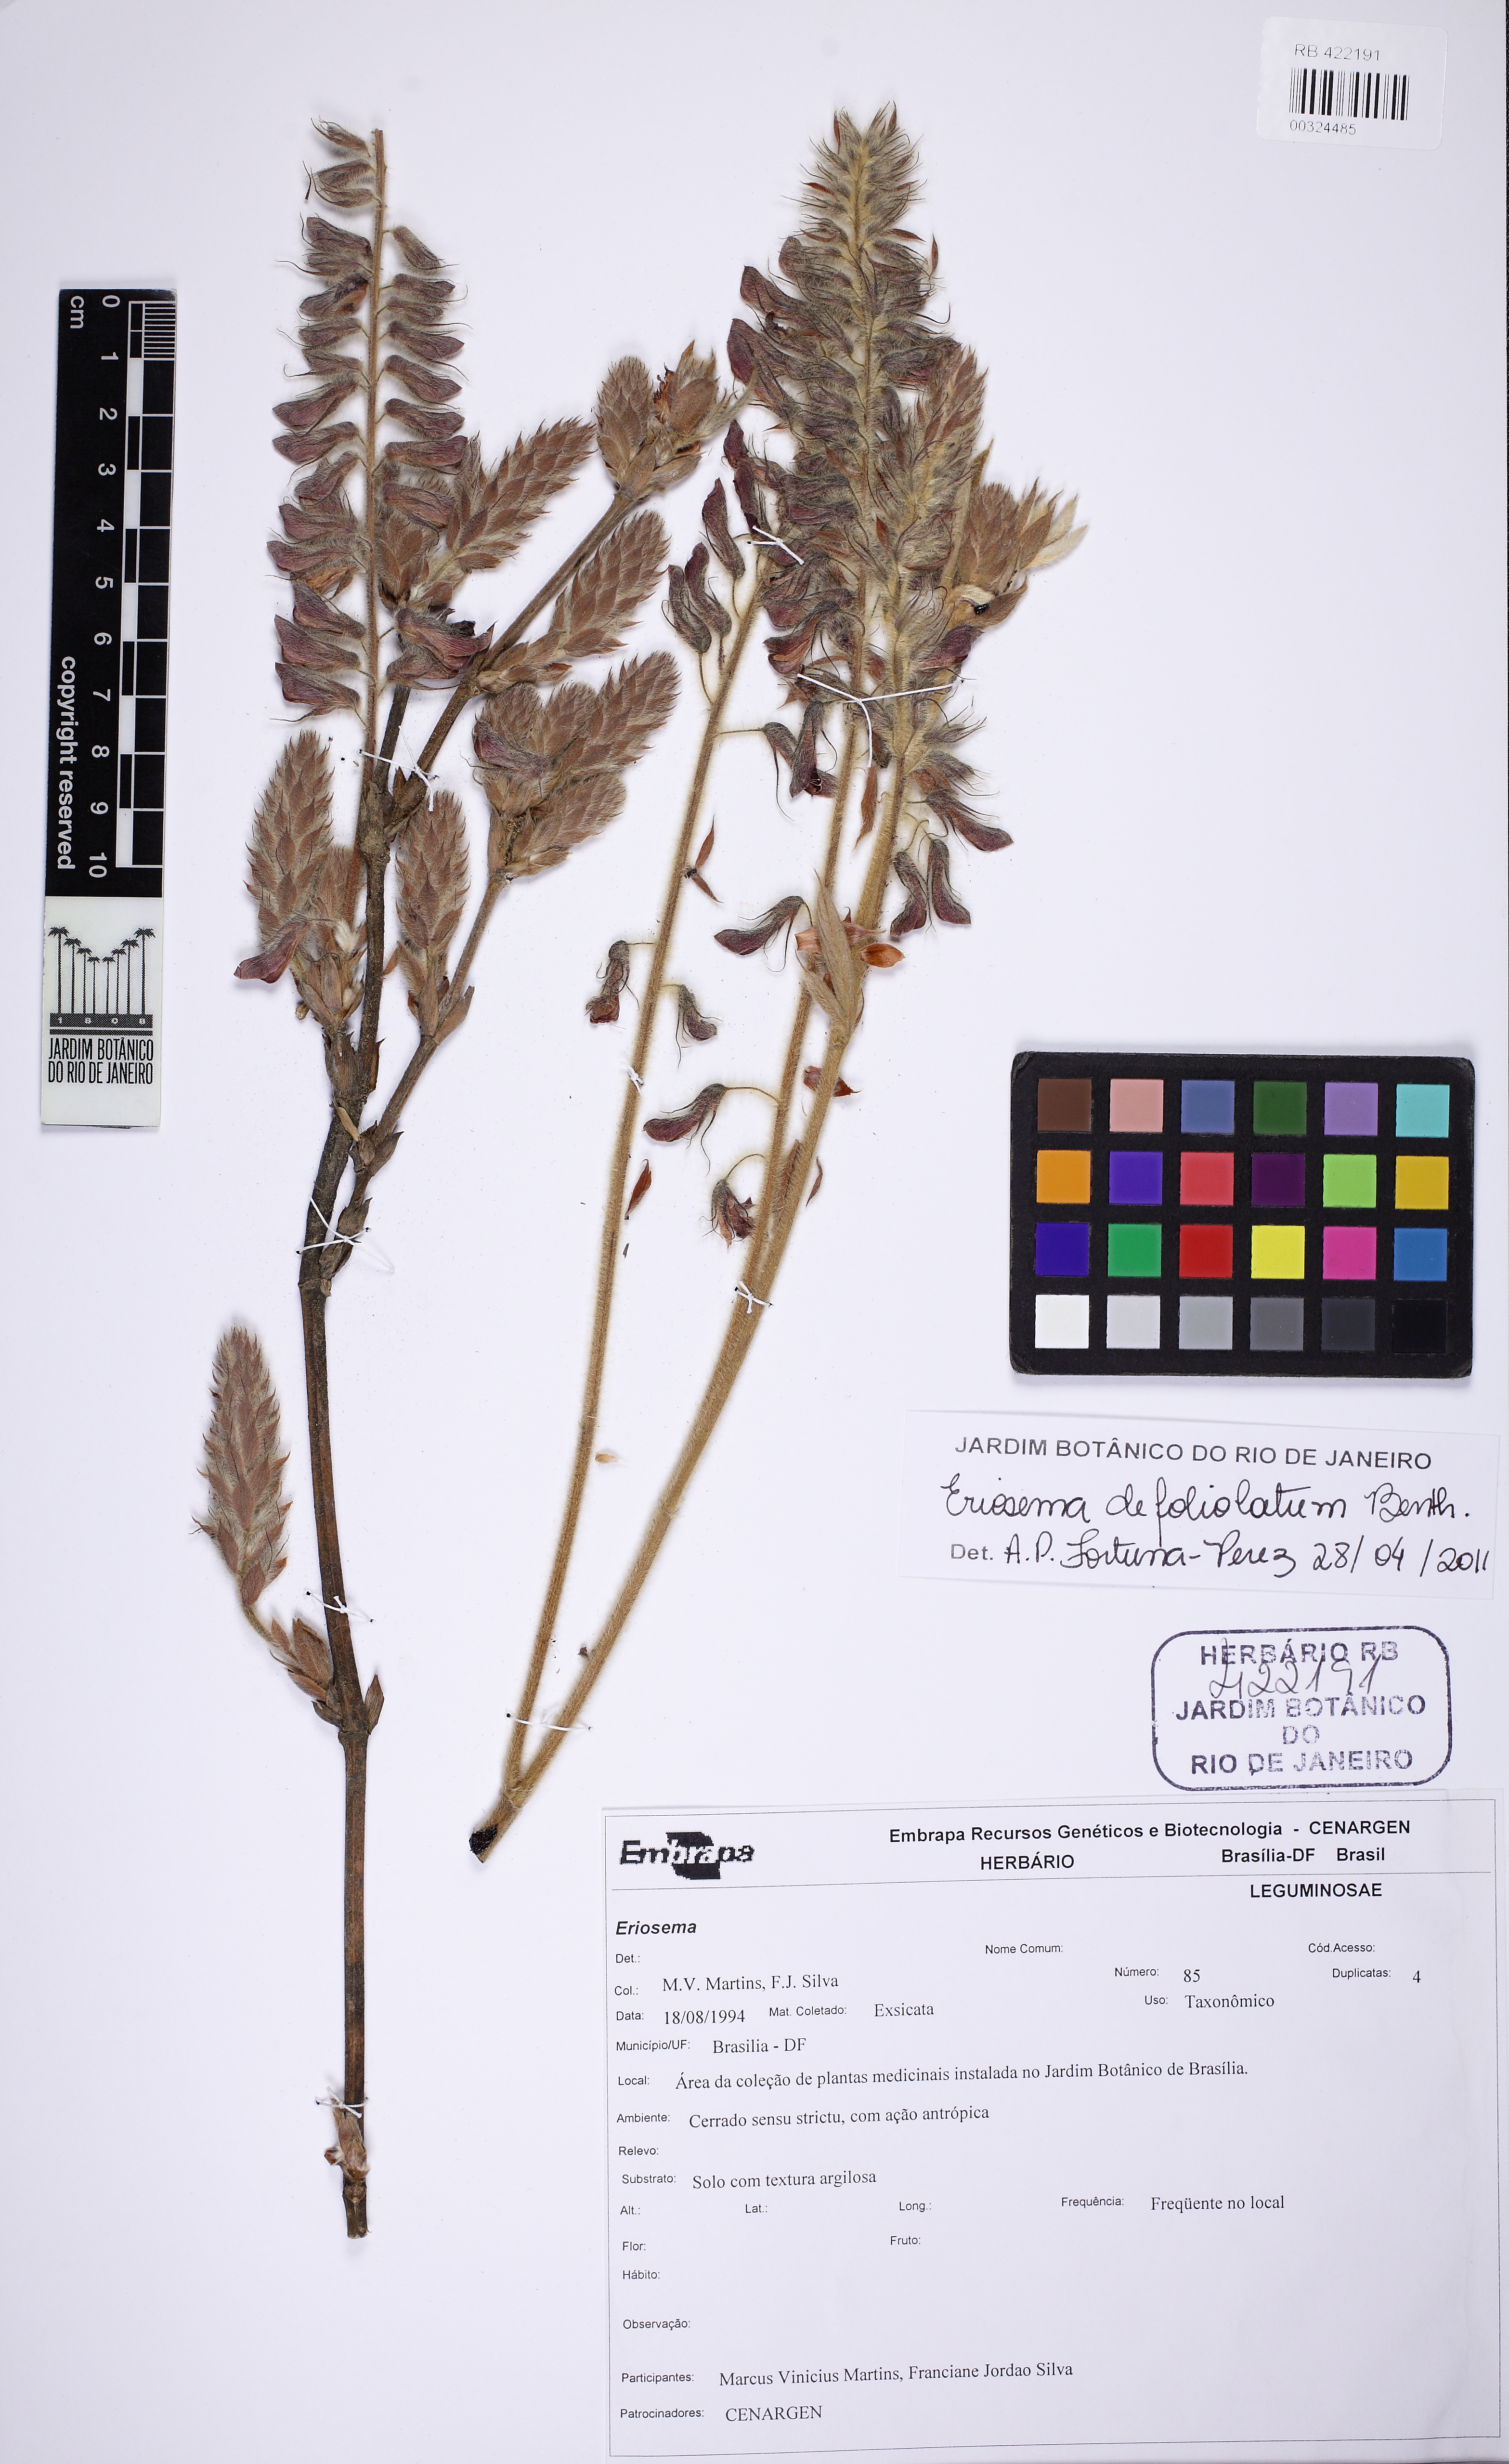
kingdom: Plantae
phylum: Tracheophyta
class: Magnoliopsida
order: Fabales
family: Fabaceae
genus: Eriosema
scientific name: Eriosema defoliatum
